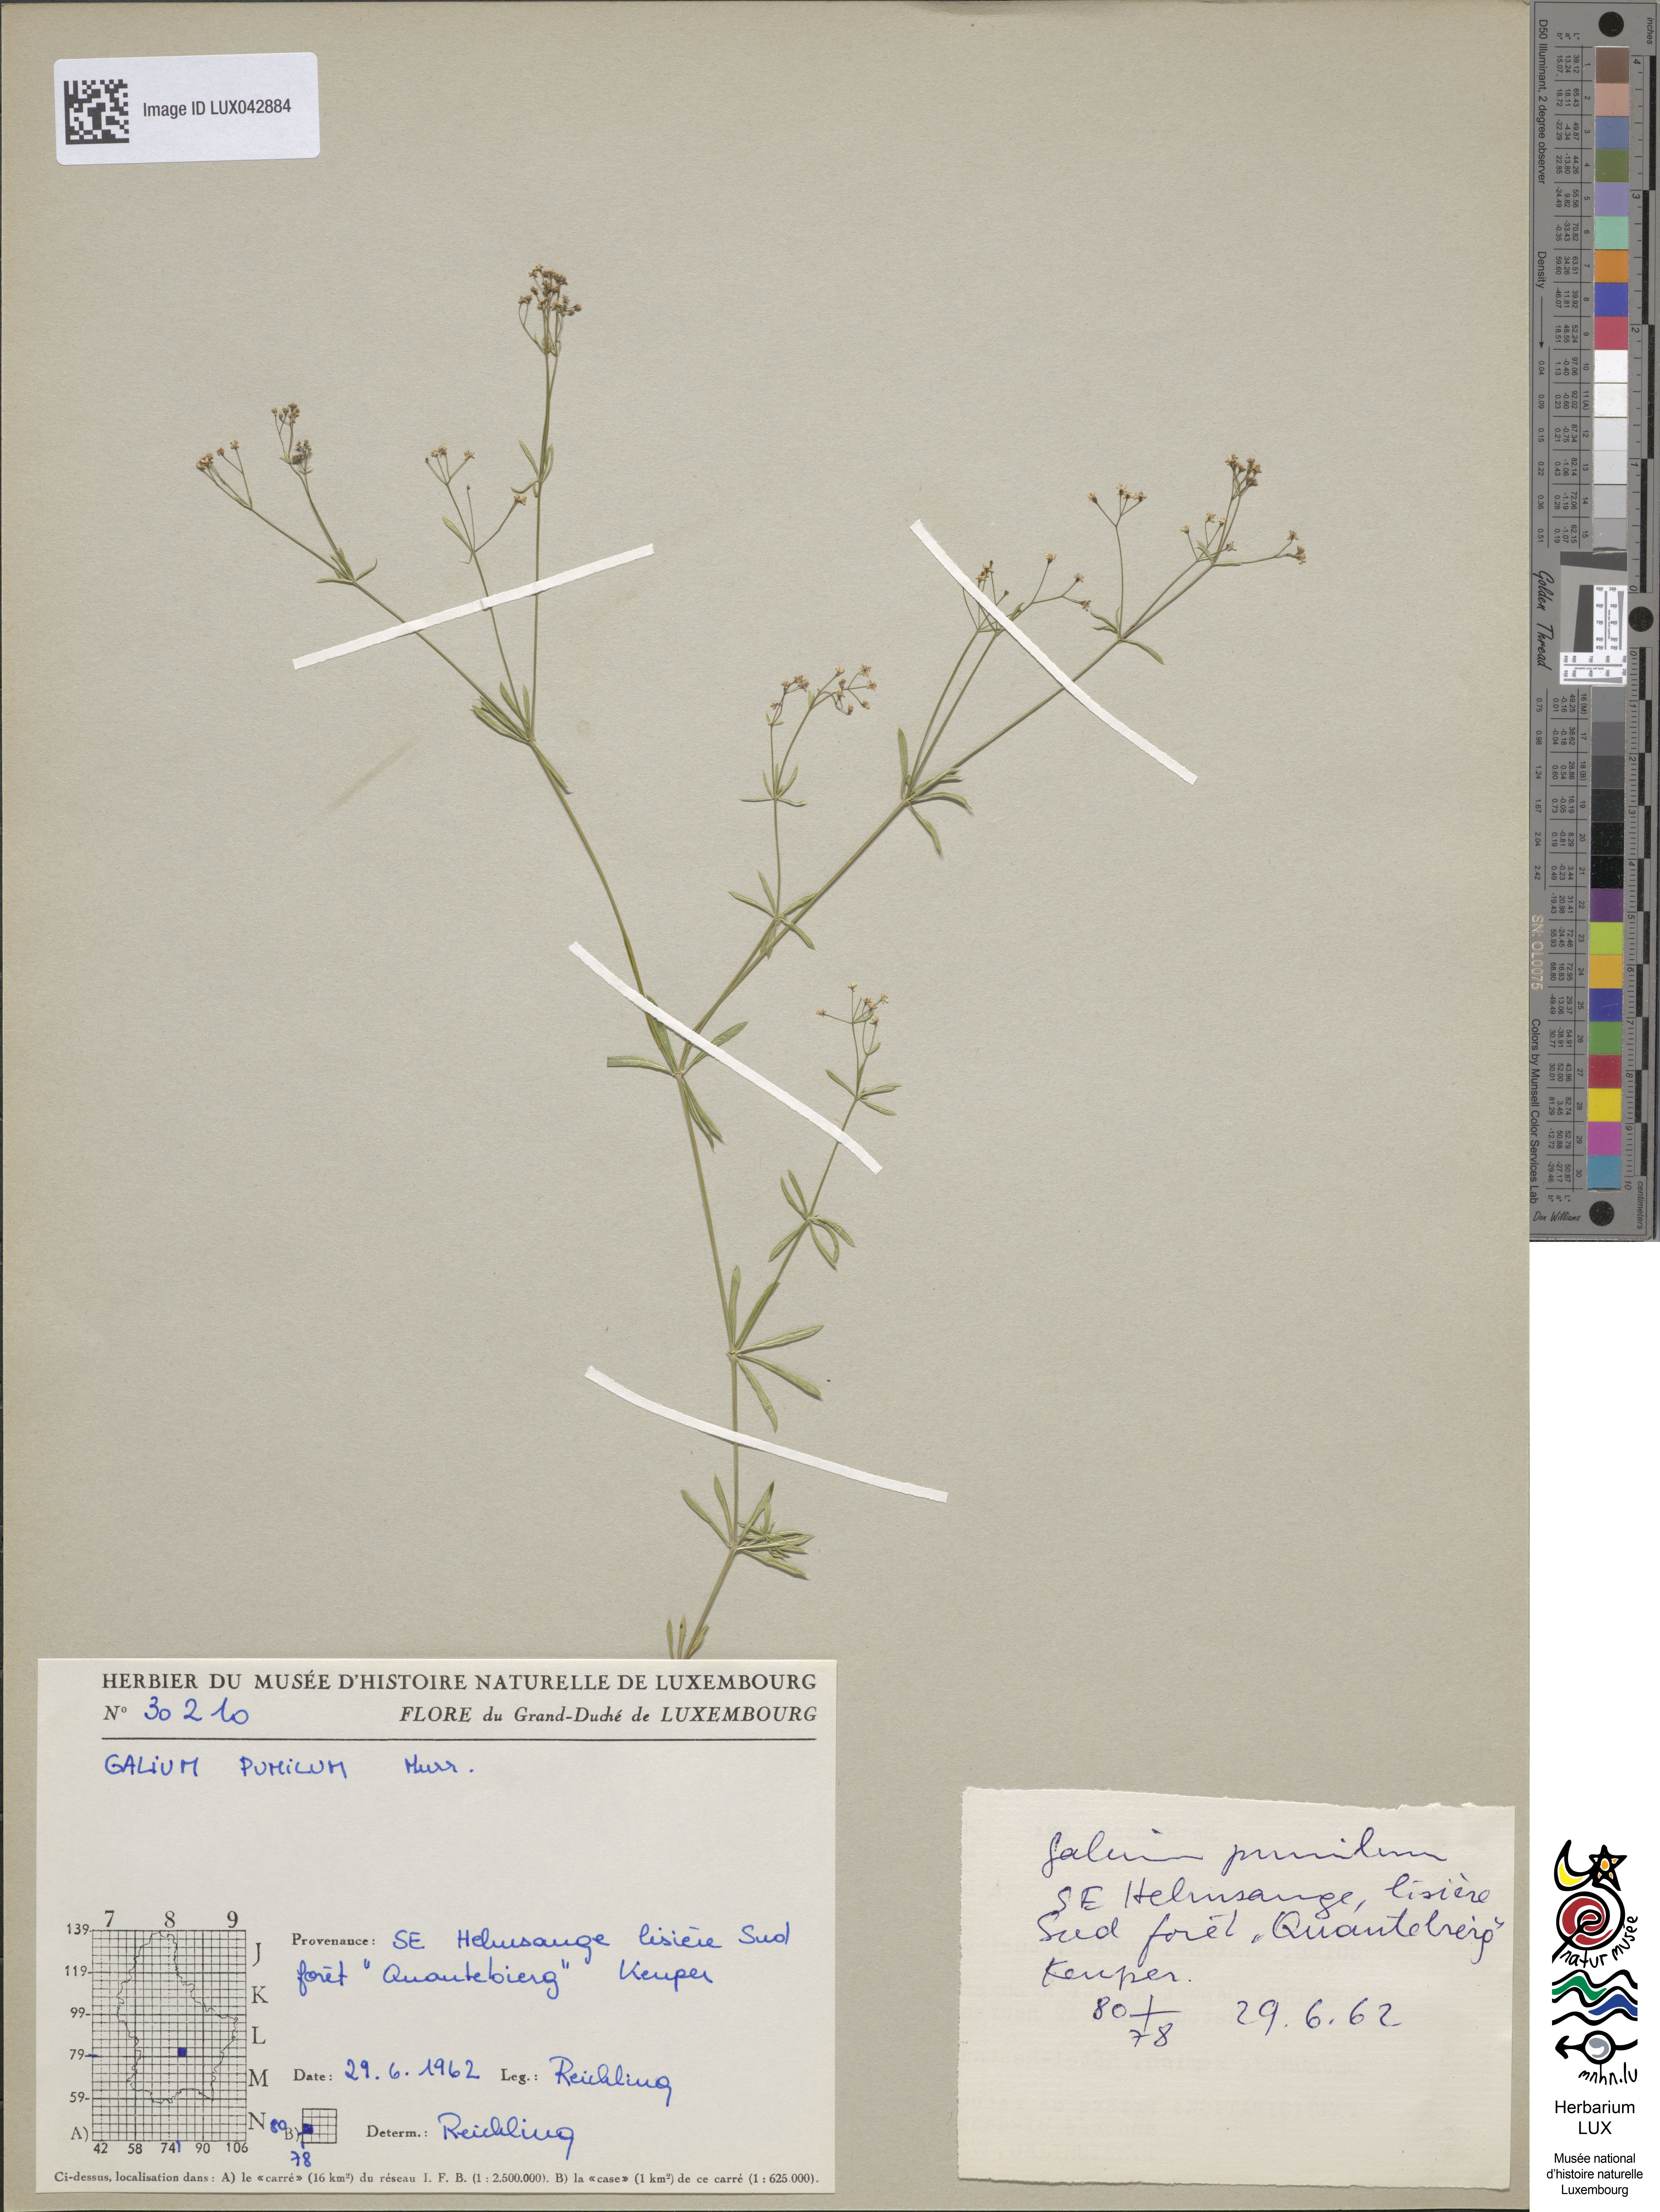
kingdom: Plantae
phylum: Tracheophyta
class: Magnoliopsida
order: Gentianales
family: Rubiaceae
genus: Galium
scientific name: Galium pumilum
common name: Slender bedstraw
